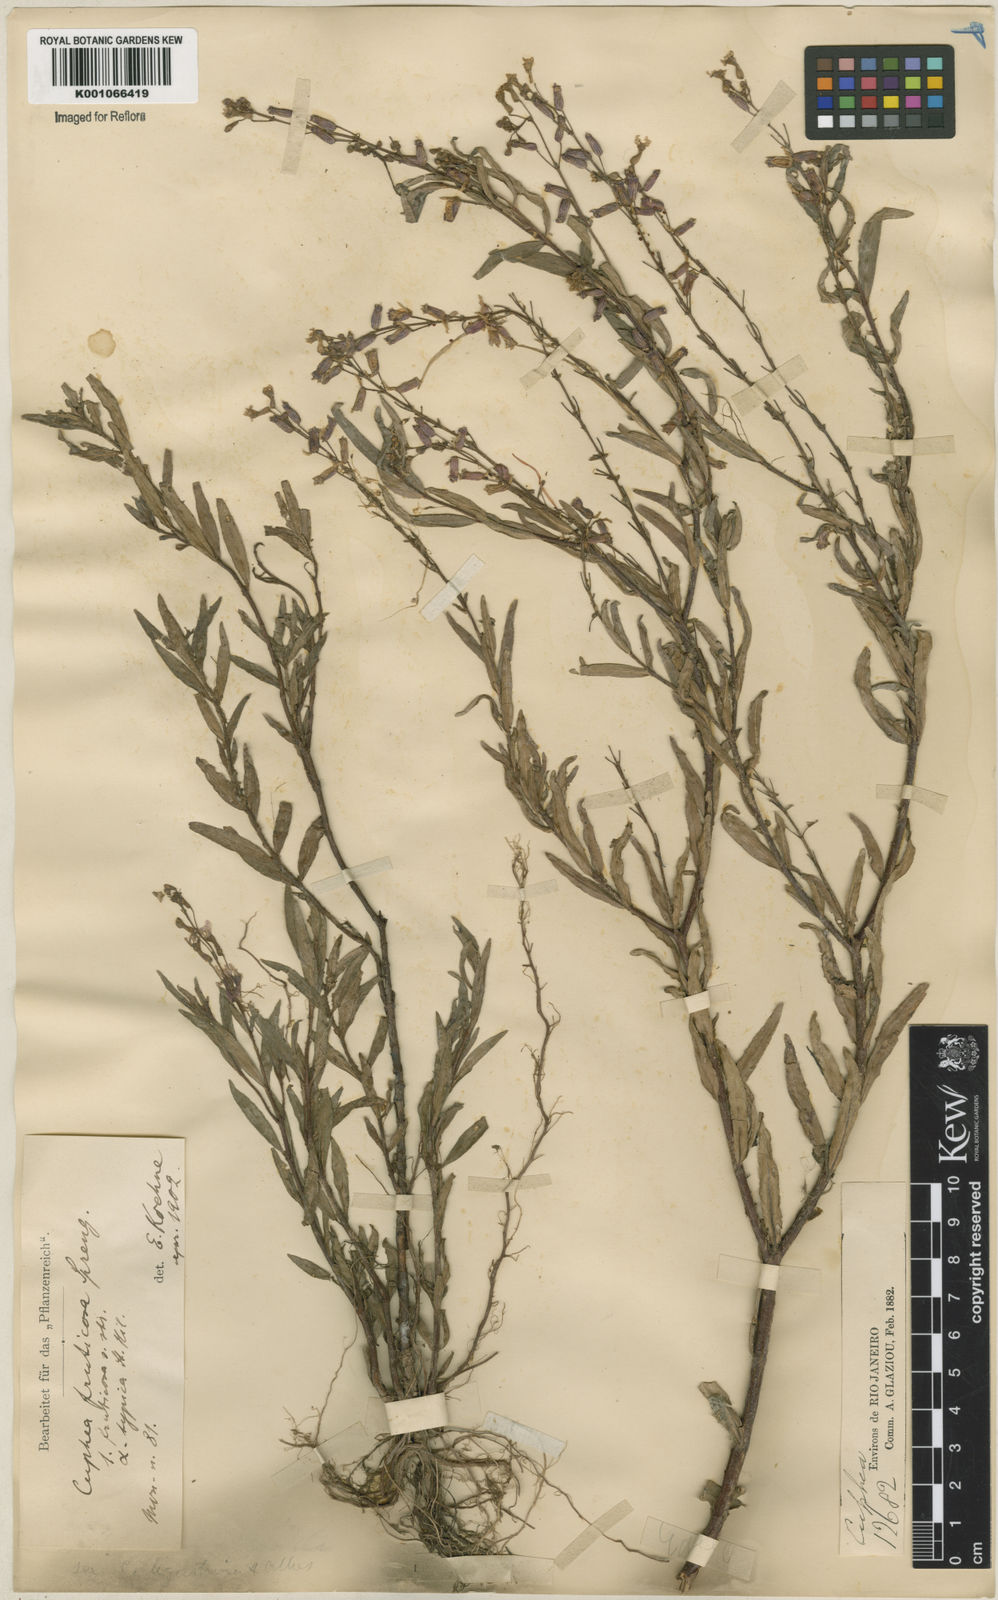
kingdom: Plantae
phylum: Tracheophyta
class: Magnoliopsida
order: Myrtales
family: Lythraceae
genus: Cuphea
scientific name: Cuphea fruticosa
